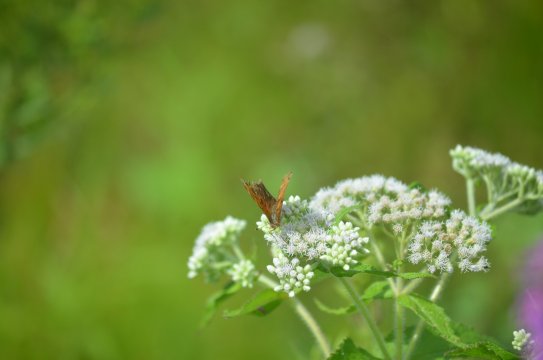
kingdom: Animalia
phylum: Arthropoda
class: Insecta
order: Lepidoptera
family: Nymphalidae
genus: Polygonia
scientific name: Polygonia comma
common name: Eastern Comma
